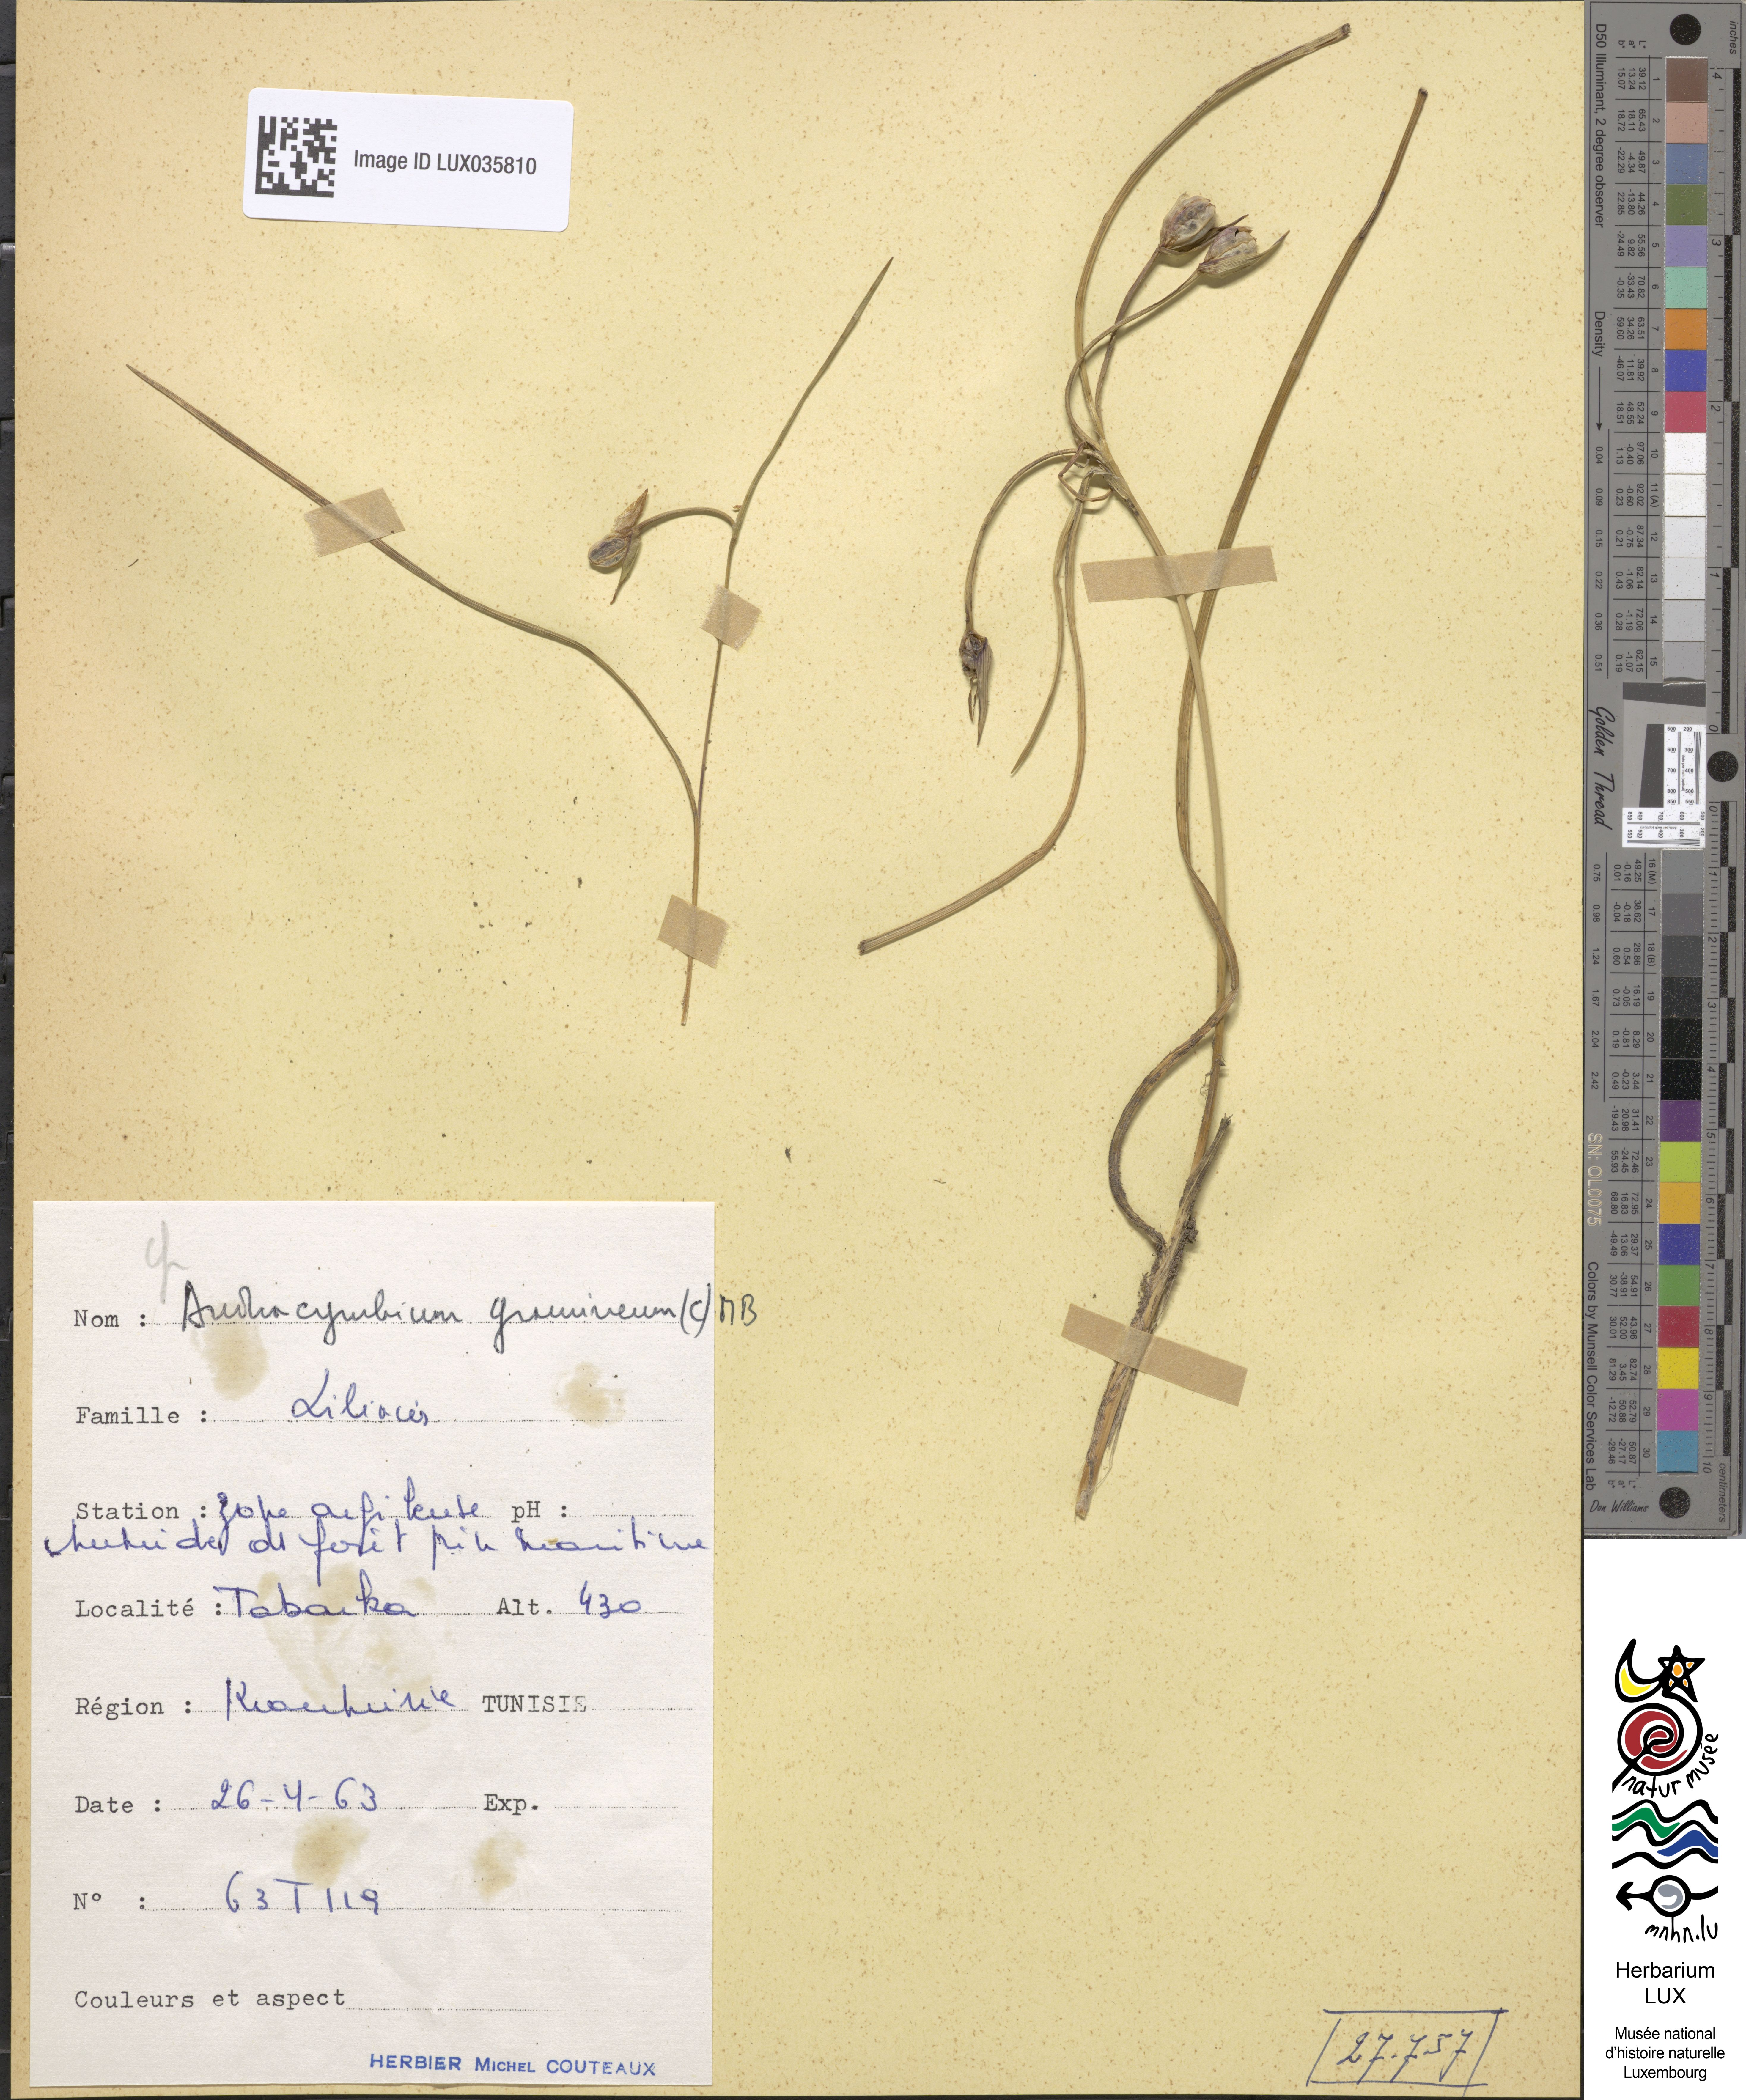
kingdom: Plantae
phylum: Tracheophyta
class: Liliopsida
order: Liliales
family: Colchicaceae
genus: Colchicum
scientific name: Colchicum gramineum
